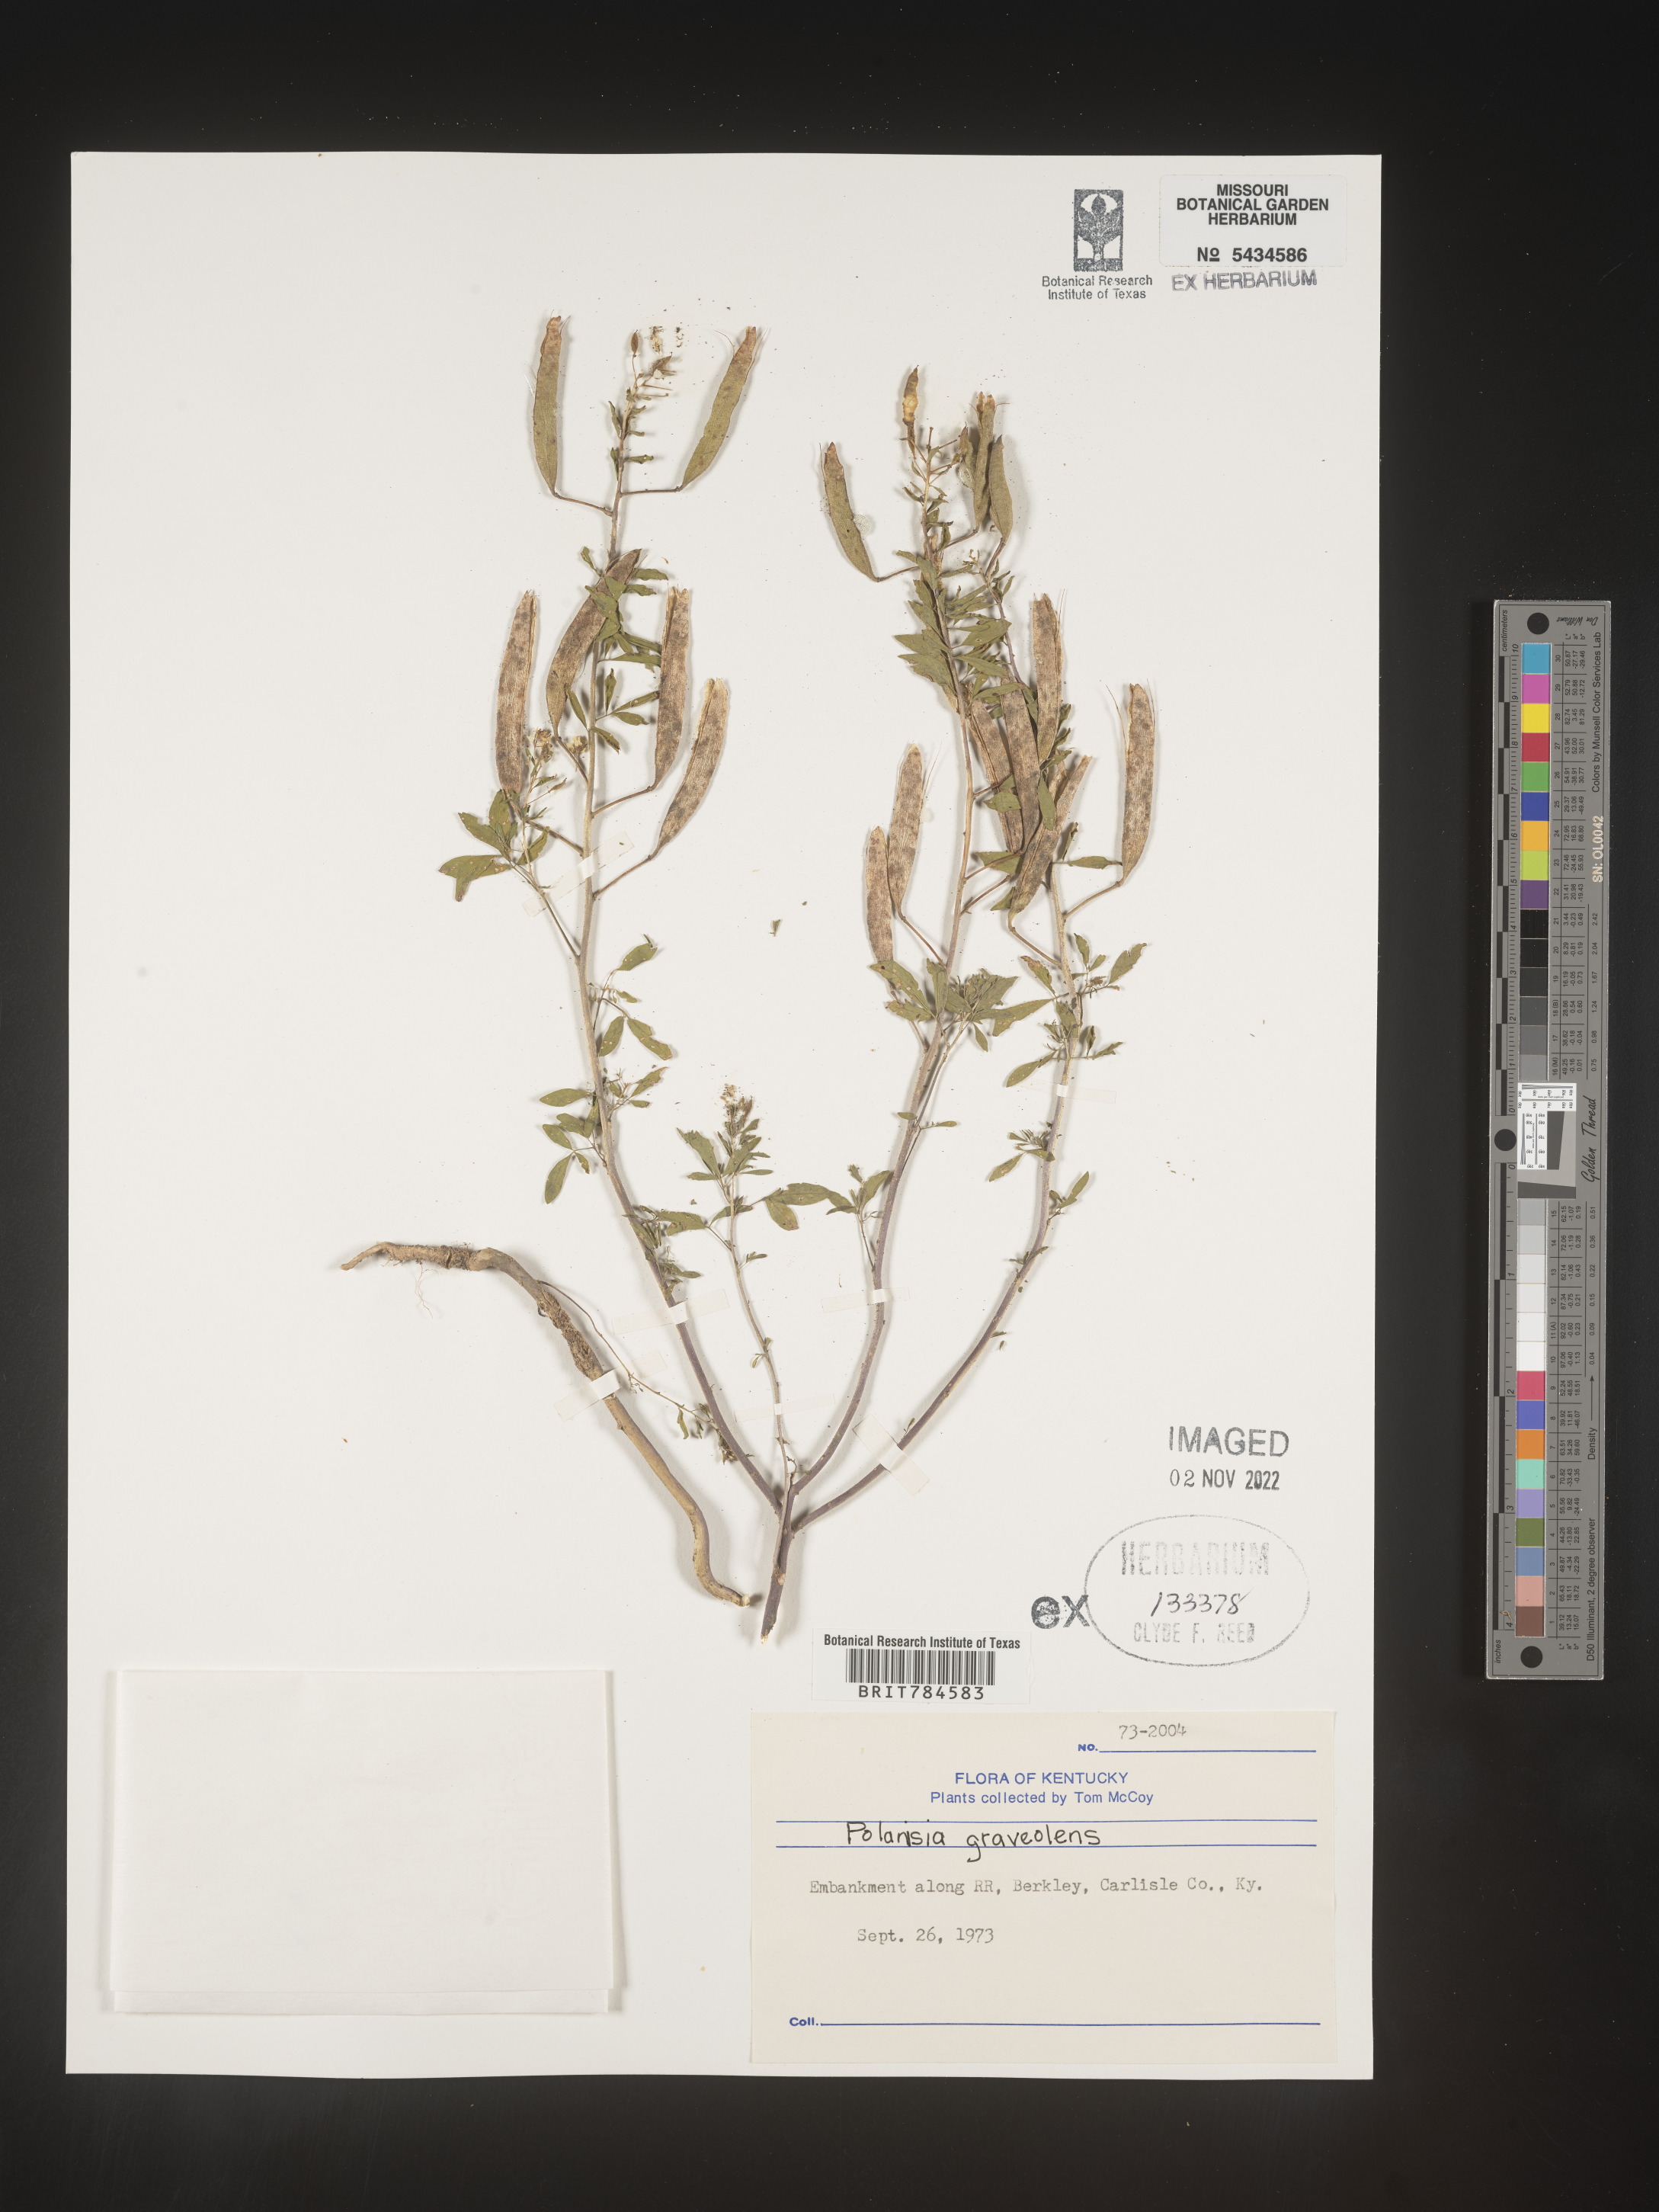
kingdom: Plantae
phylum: Tracheophyta
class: Magnoliopsida
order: Brassicales
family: Cleomaceae
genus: Polanisia
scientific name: Polanisia
